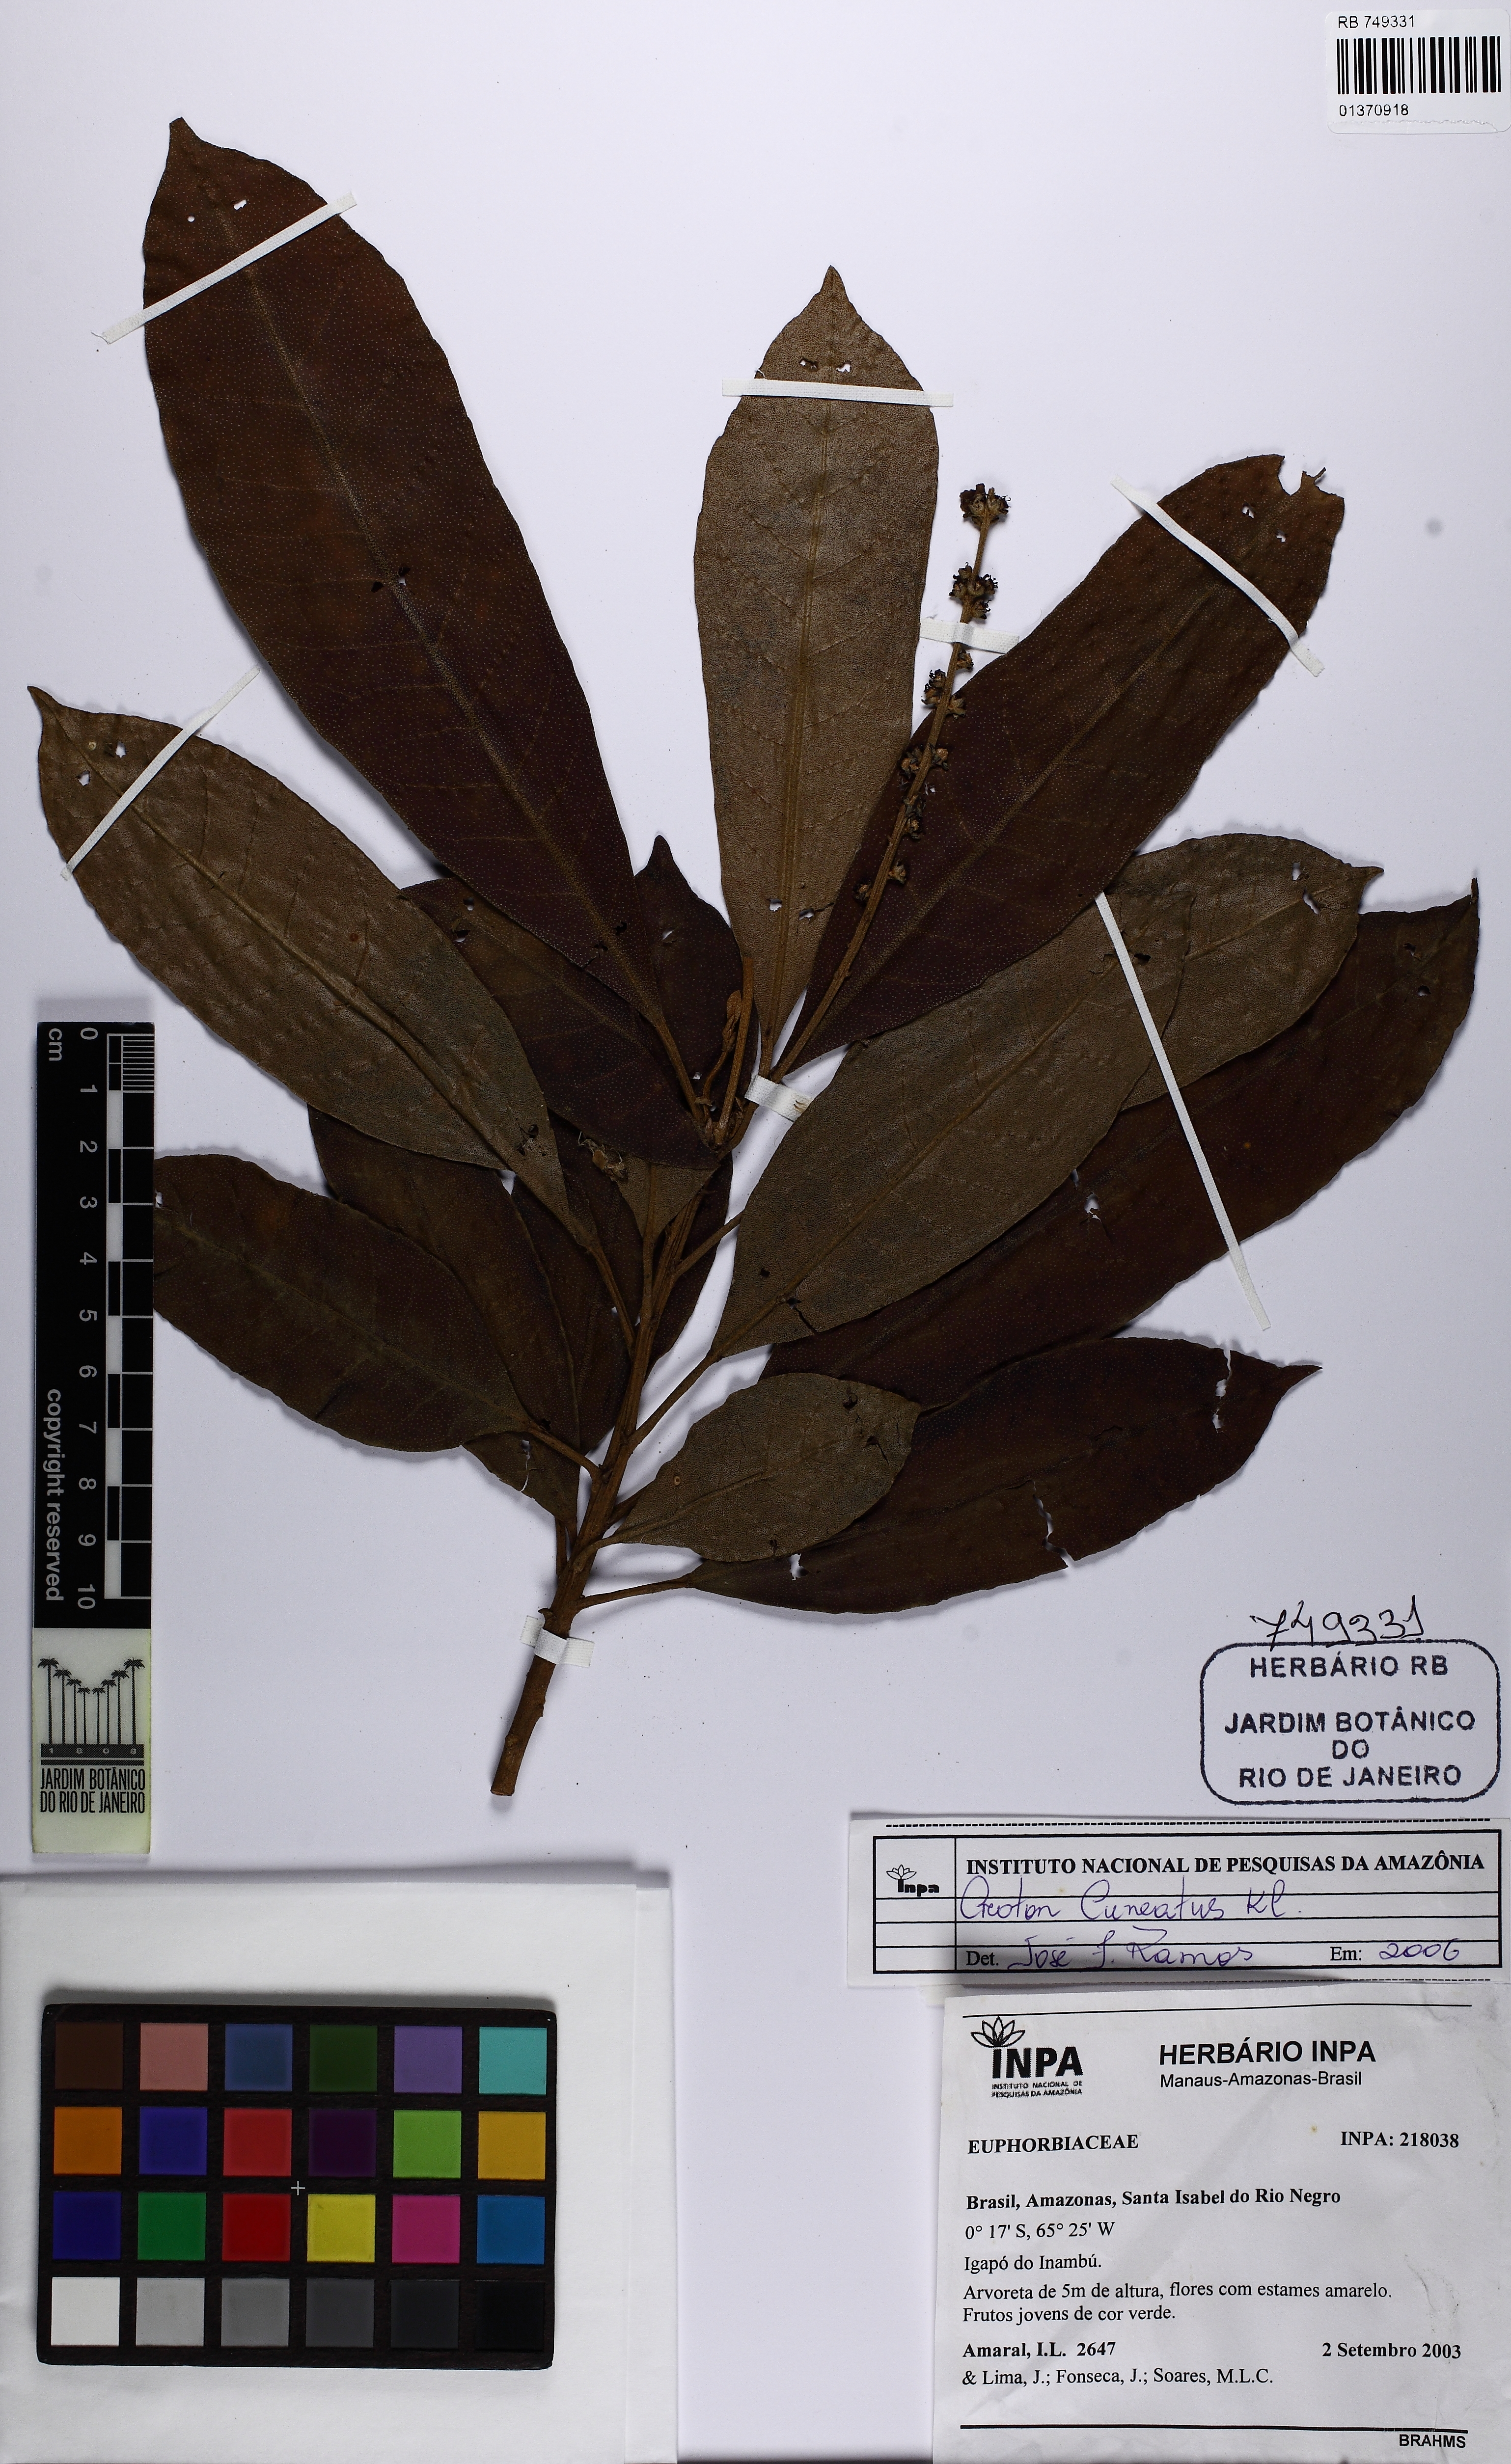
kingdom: Plantae
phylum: Tracheophyta
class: Magnoliopsida
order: Malpighiales
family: Euphorbiaceae
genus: Croton
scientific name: Croton cuneatus
